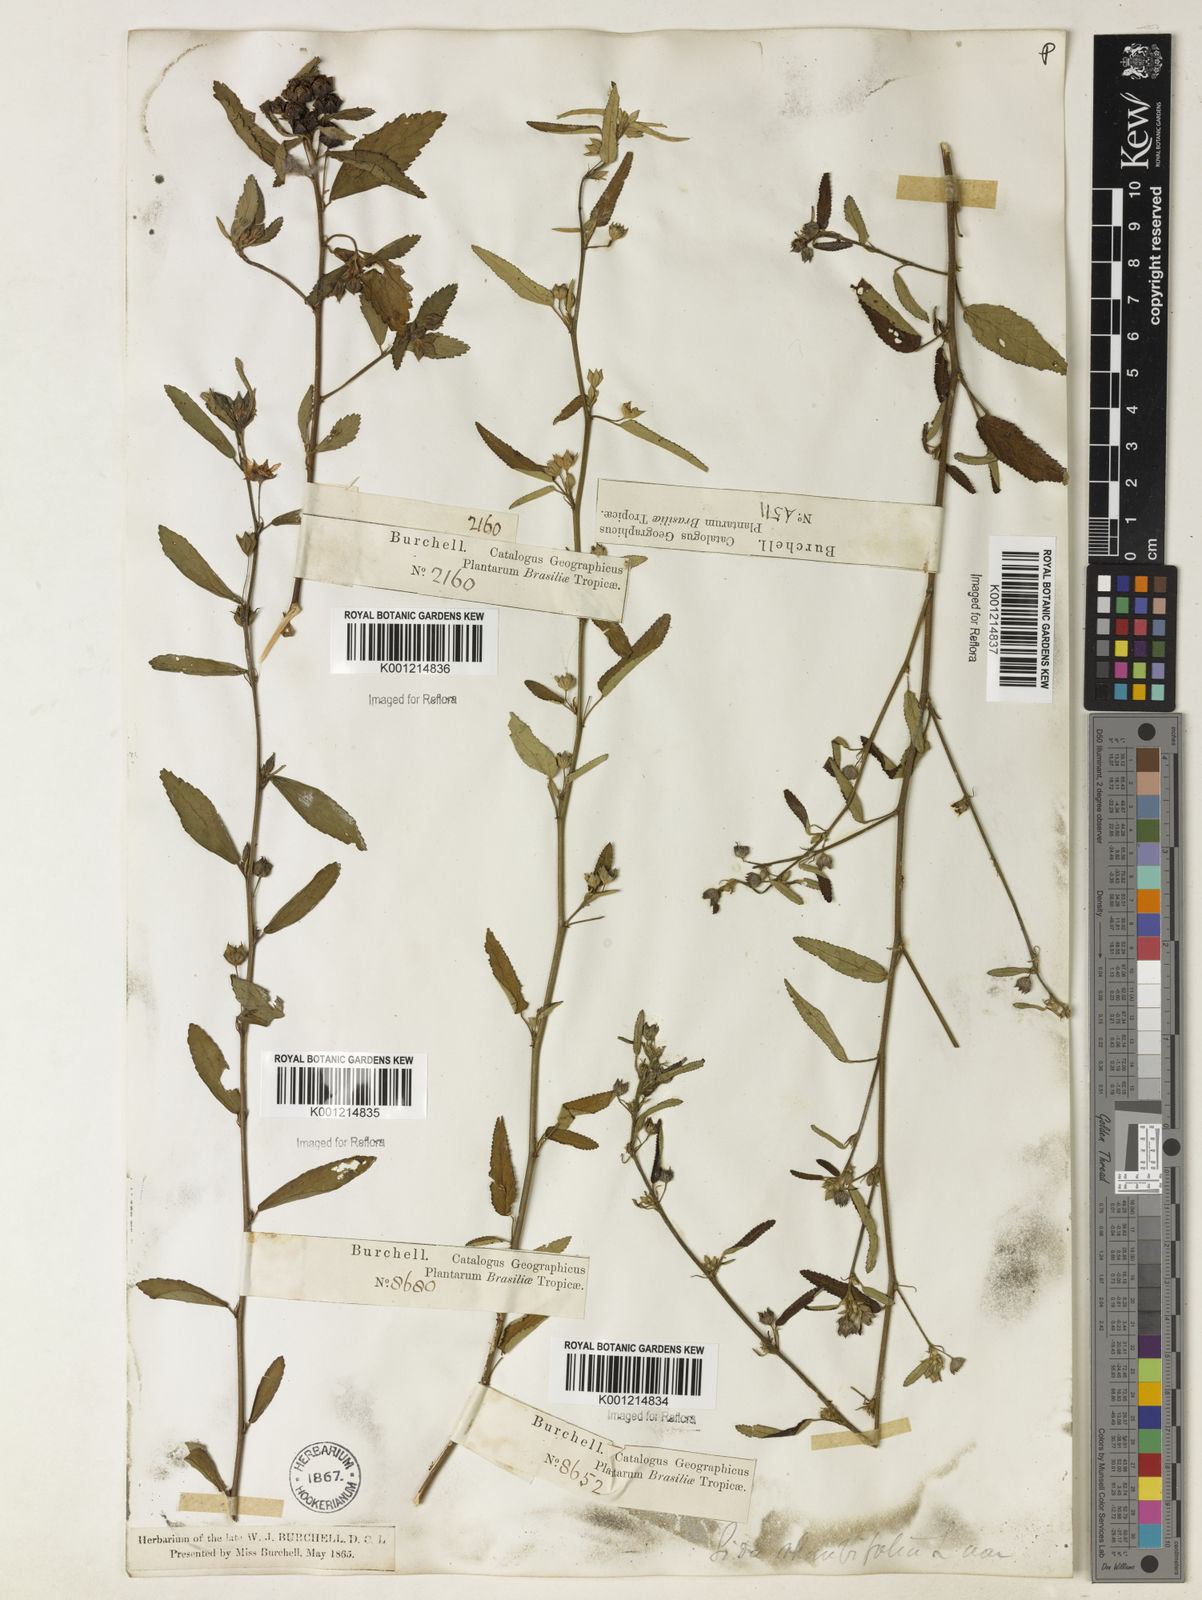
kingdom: Plantae
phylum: Tracheophyta
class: Magnoliopsida
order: Malvales
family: Malvaceae
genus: Sida
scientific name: Sida rhombifolia
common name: Queensland-hemp
